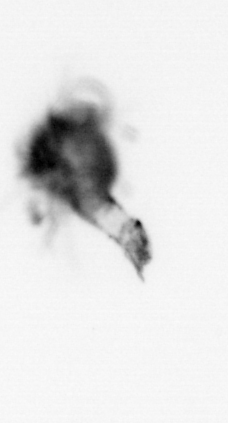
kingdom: Animalia
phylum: Arthropoda
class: Malacostraca
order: Decapoda
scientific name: Decapoda
